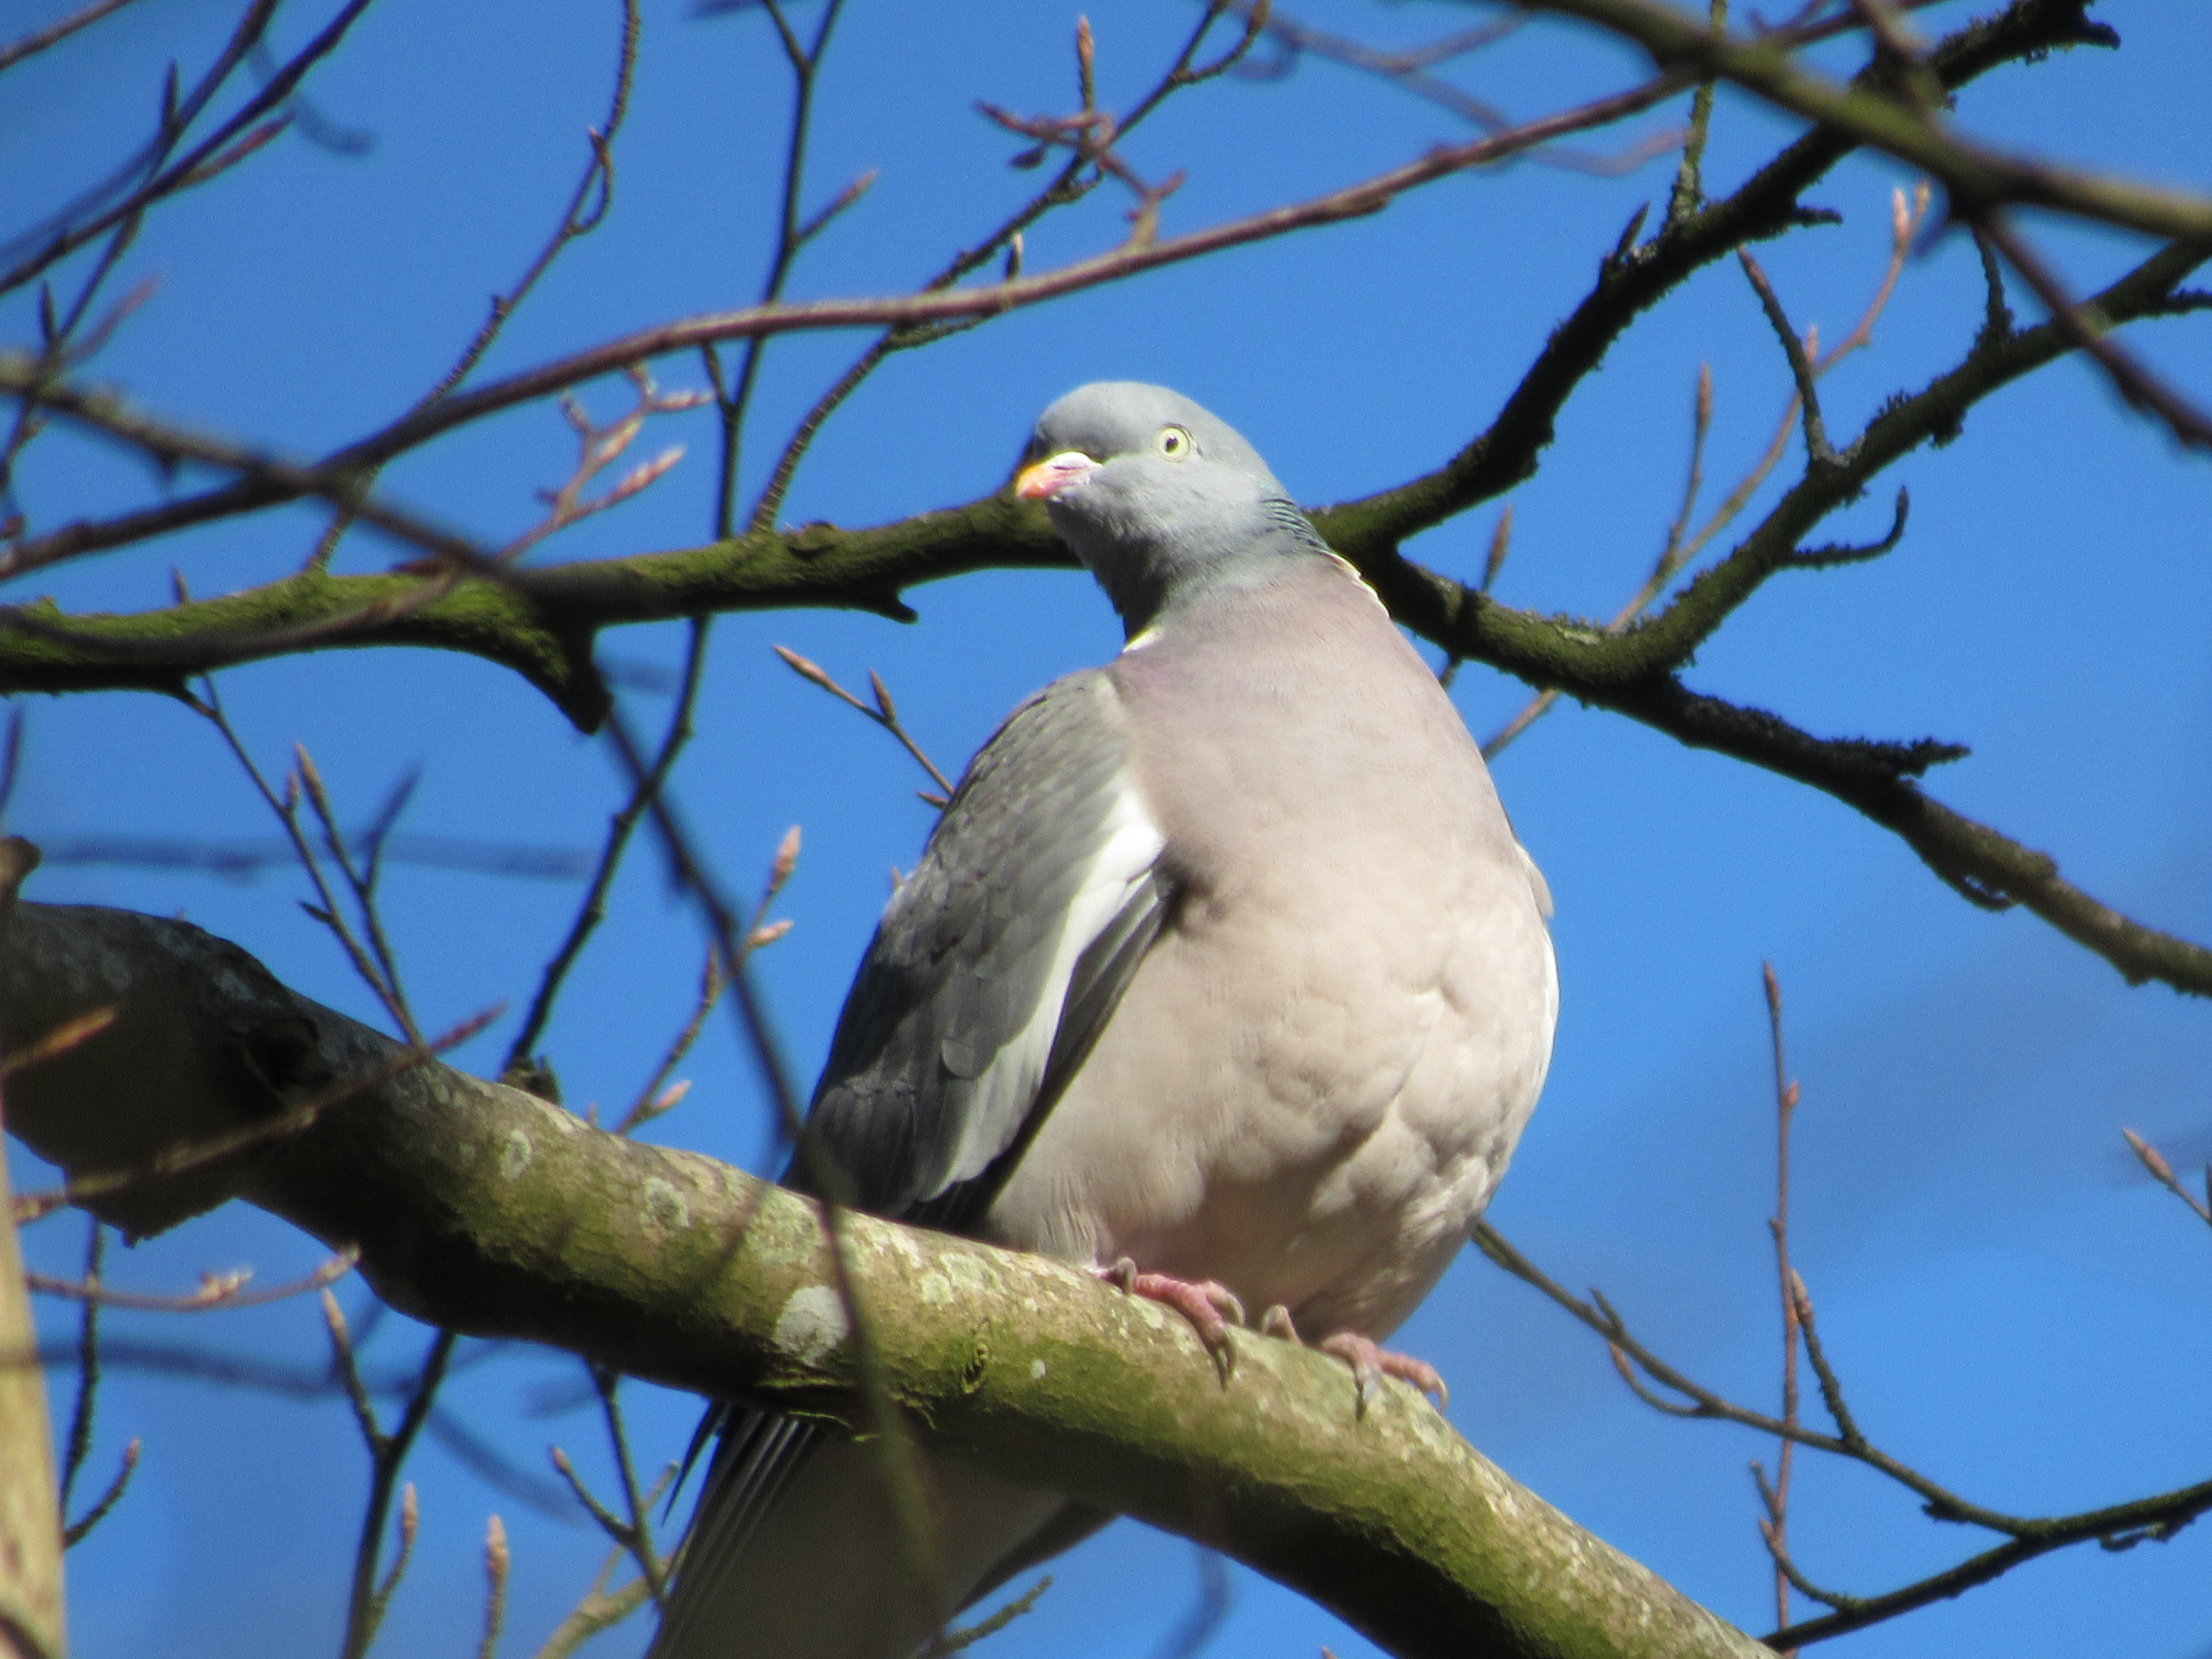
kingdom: Animalia
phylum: Chordata
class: Aves
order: Columbiformes
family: Columbidae
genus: Columba
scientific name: Columba palumbus
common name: Ringdue
